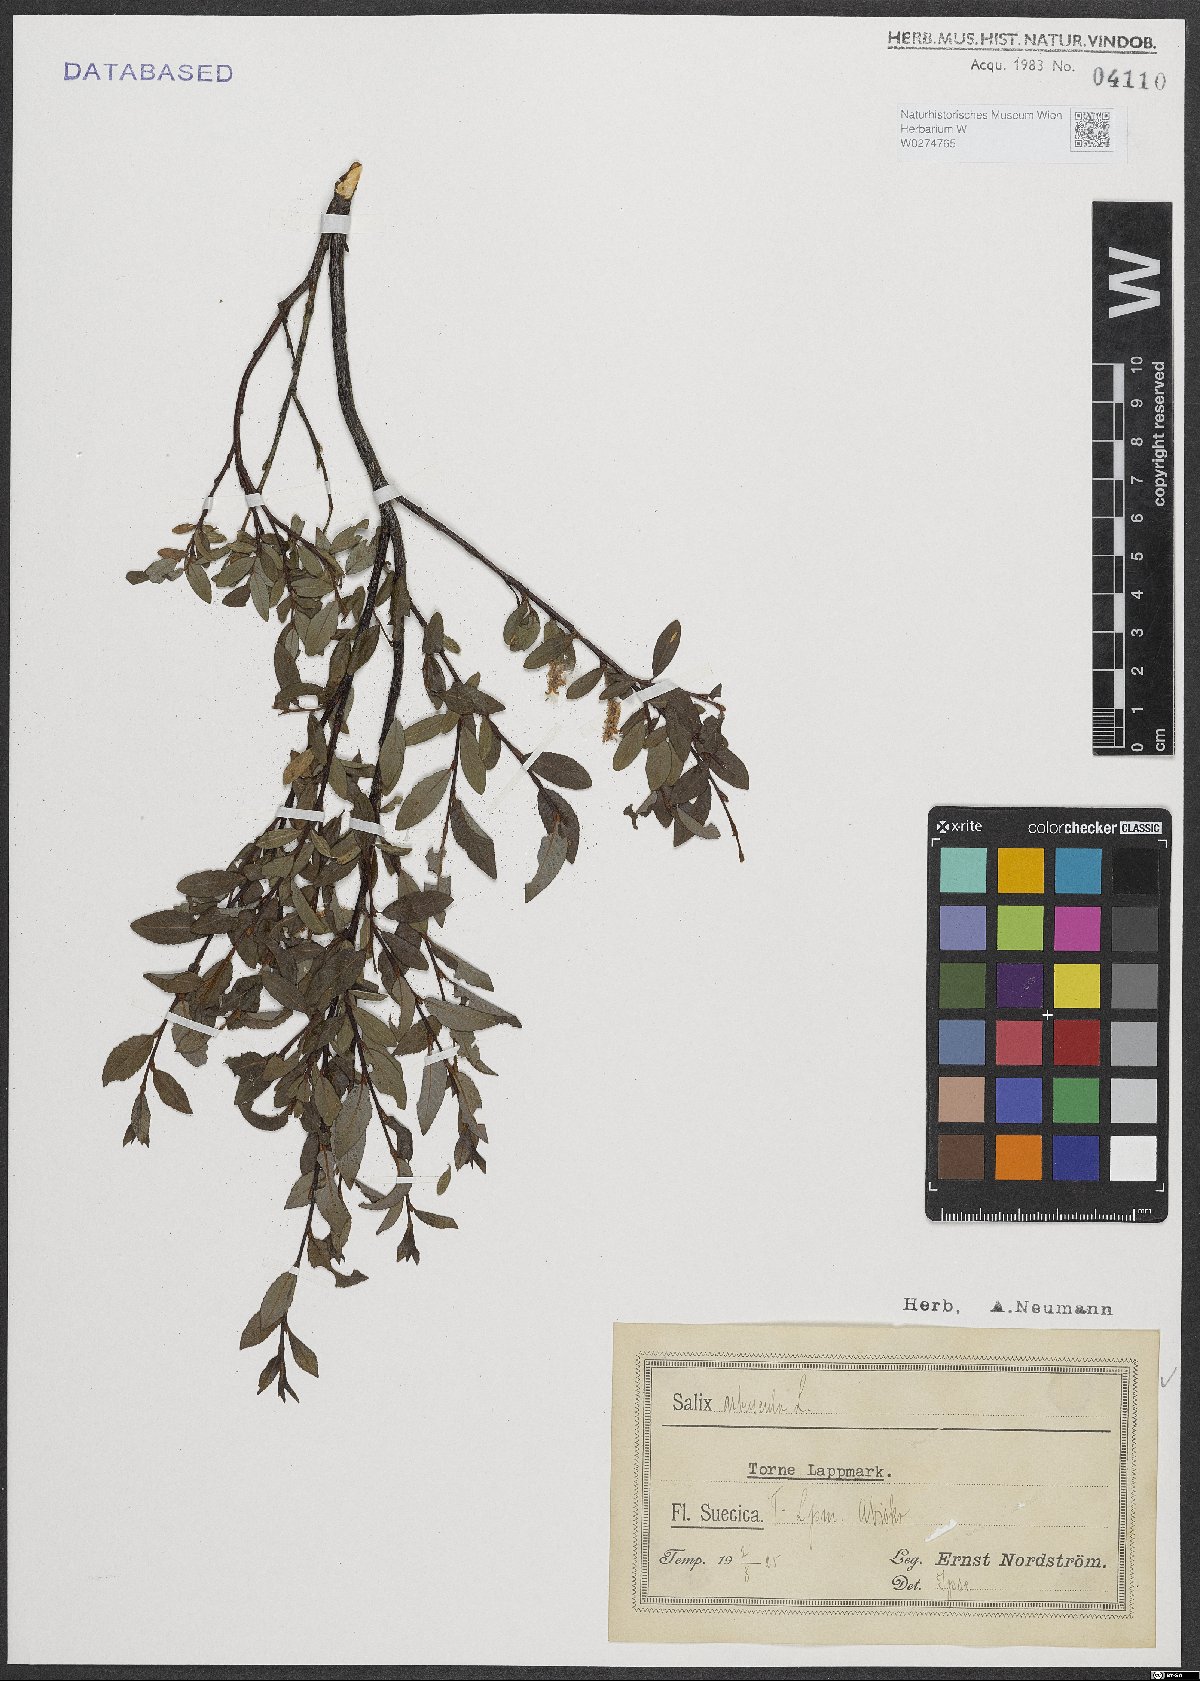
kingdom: Plantae
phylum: Tracheophyta
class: Magnoliopsida
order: Malpighiales
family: Salicaceae
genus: Salix
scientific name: Salix arbuscula
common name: Mountain willow
